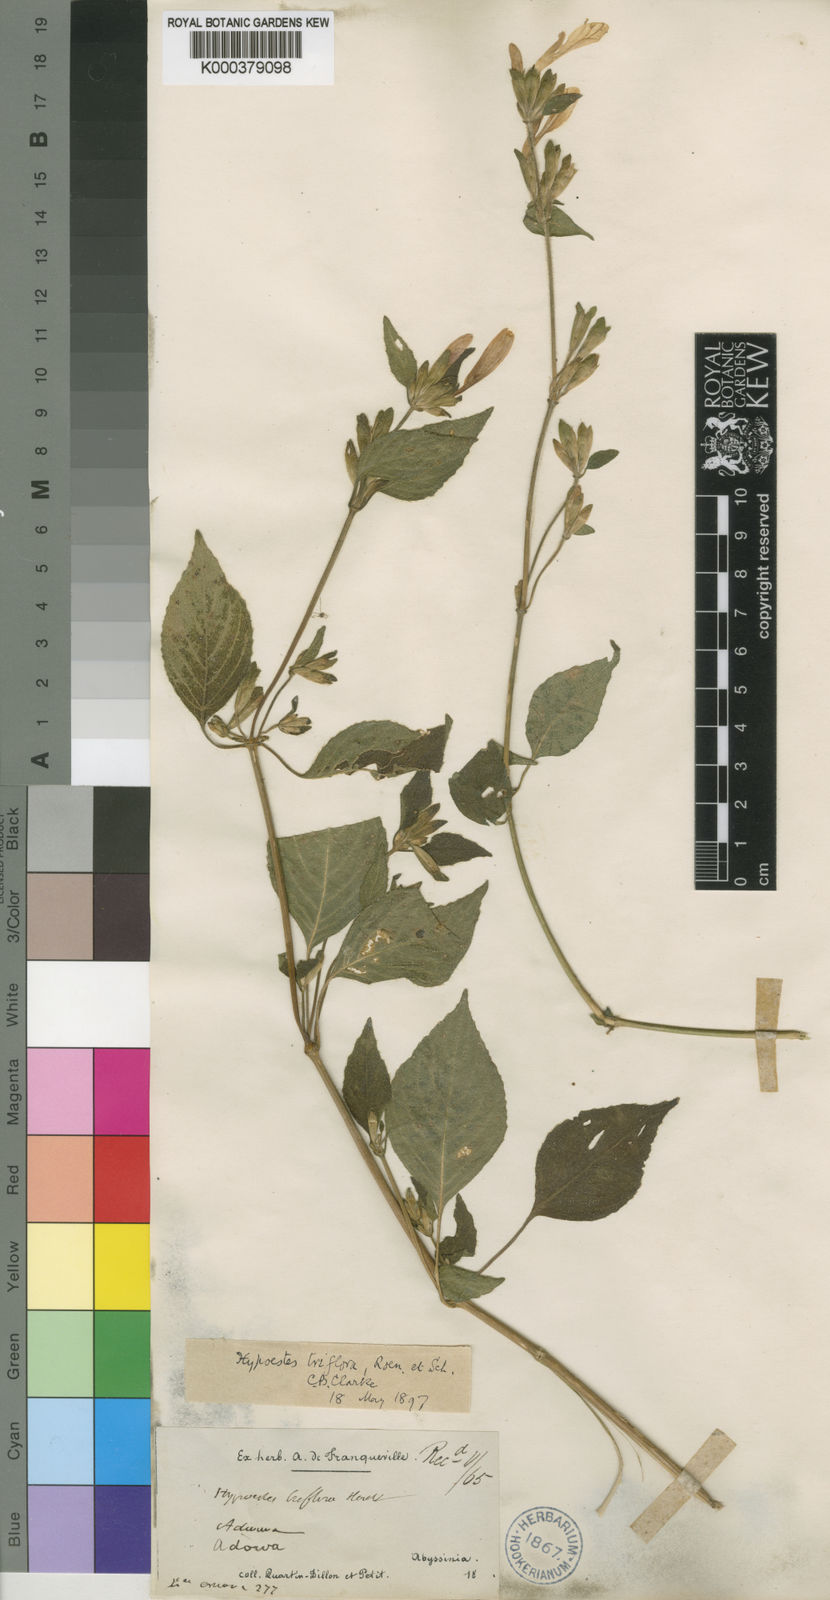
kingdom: Plantae
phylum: Tracheophyta
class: Magnoliopsida
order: Lamiales
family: Acanthaceae
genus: Hypoestes
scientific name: Hypoestes
